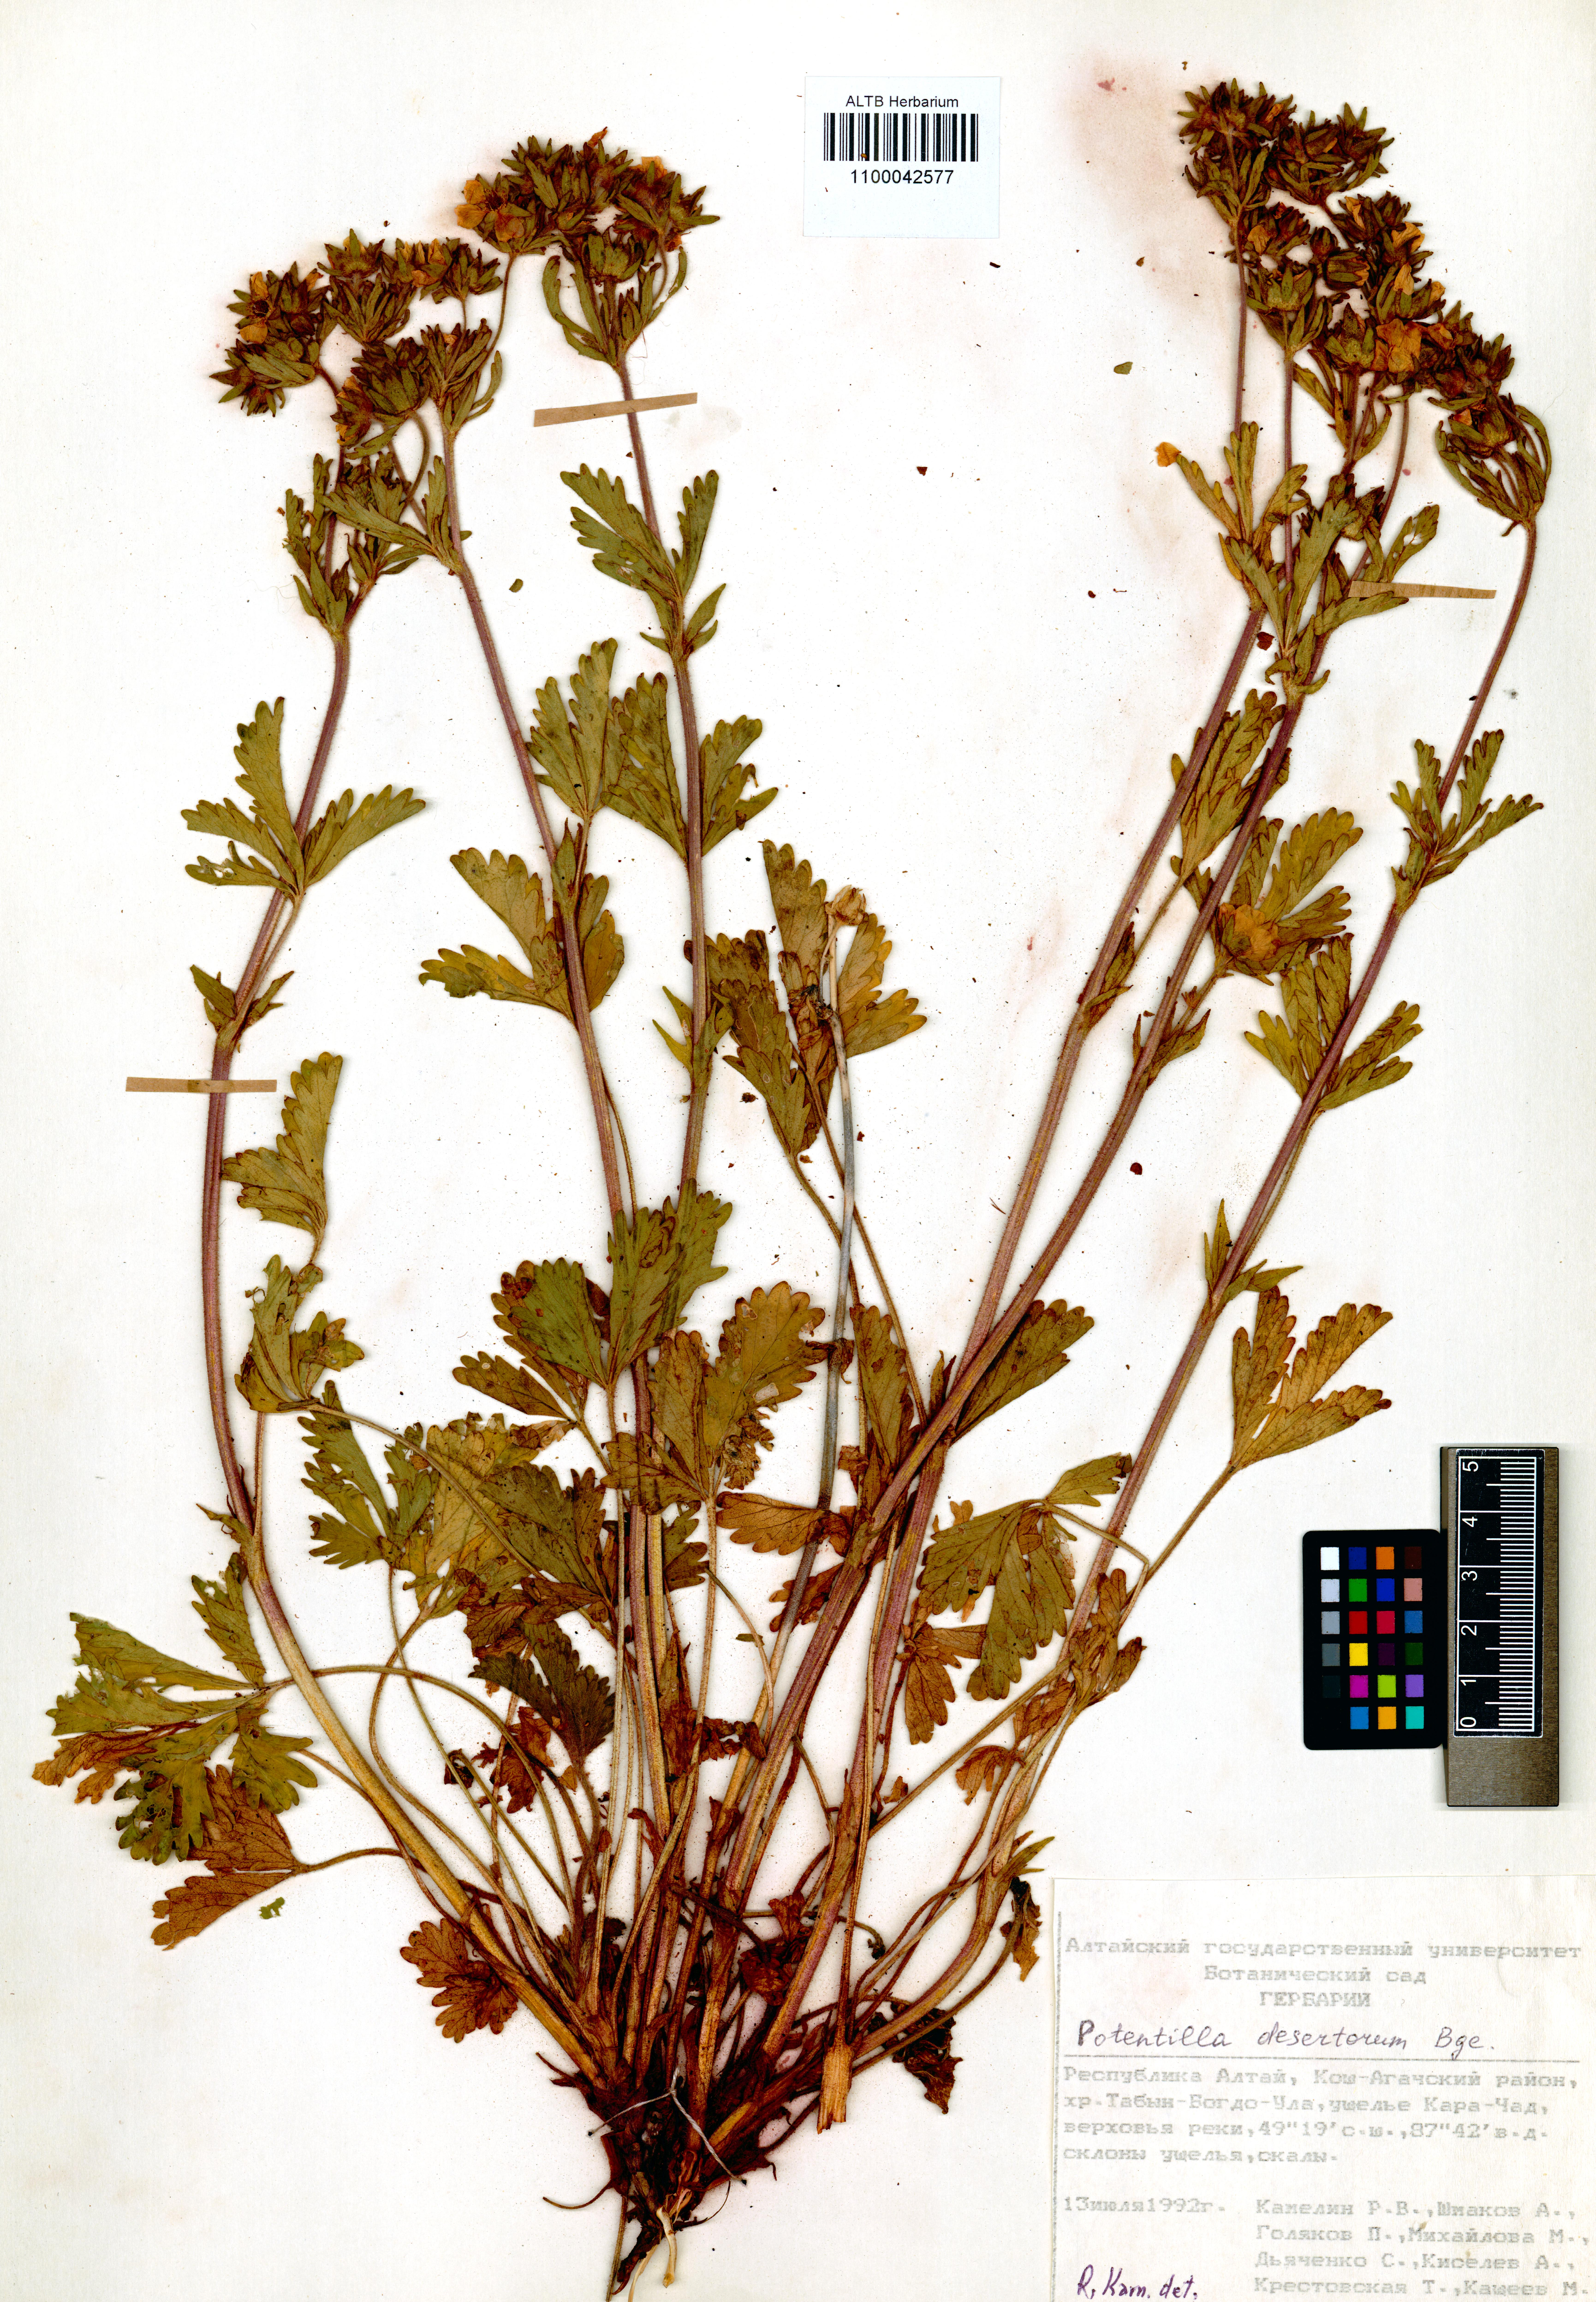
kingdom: Plantae
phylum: Tracheophyta
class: Magnoliopsida
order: Rosales
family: Rosaceae
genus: Potentilla
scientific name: Potentilla desertorum
